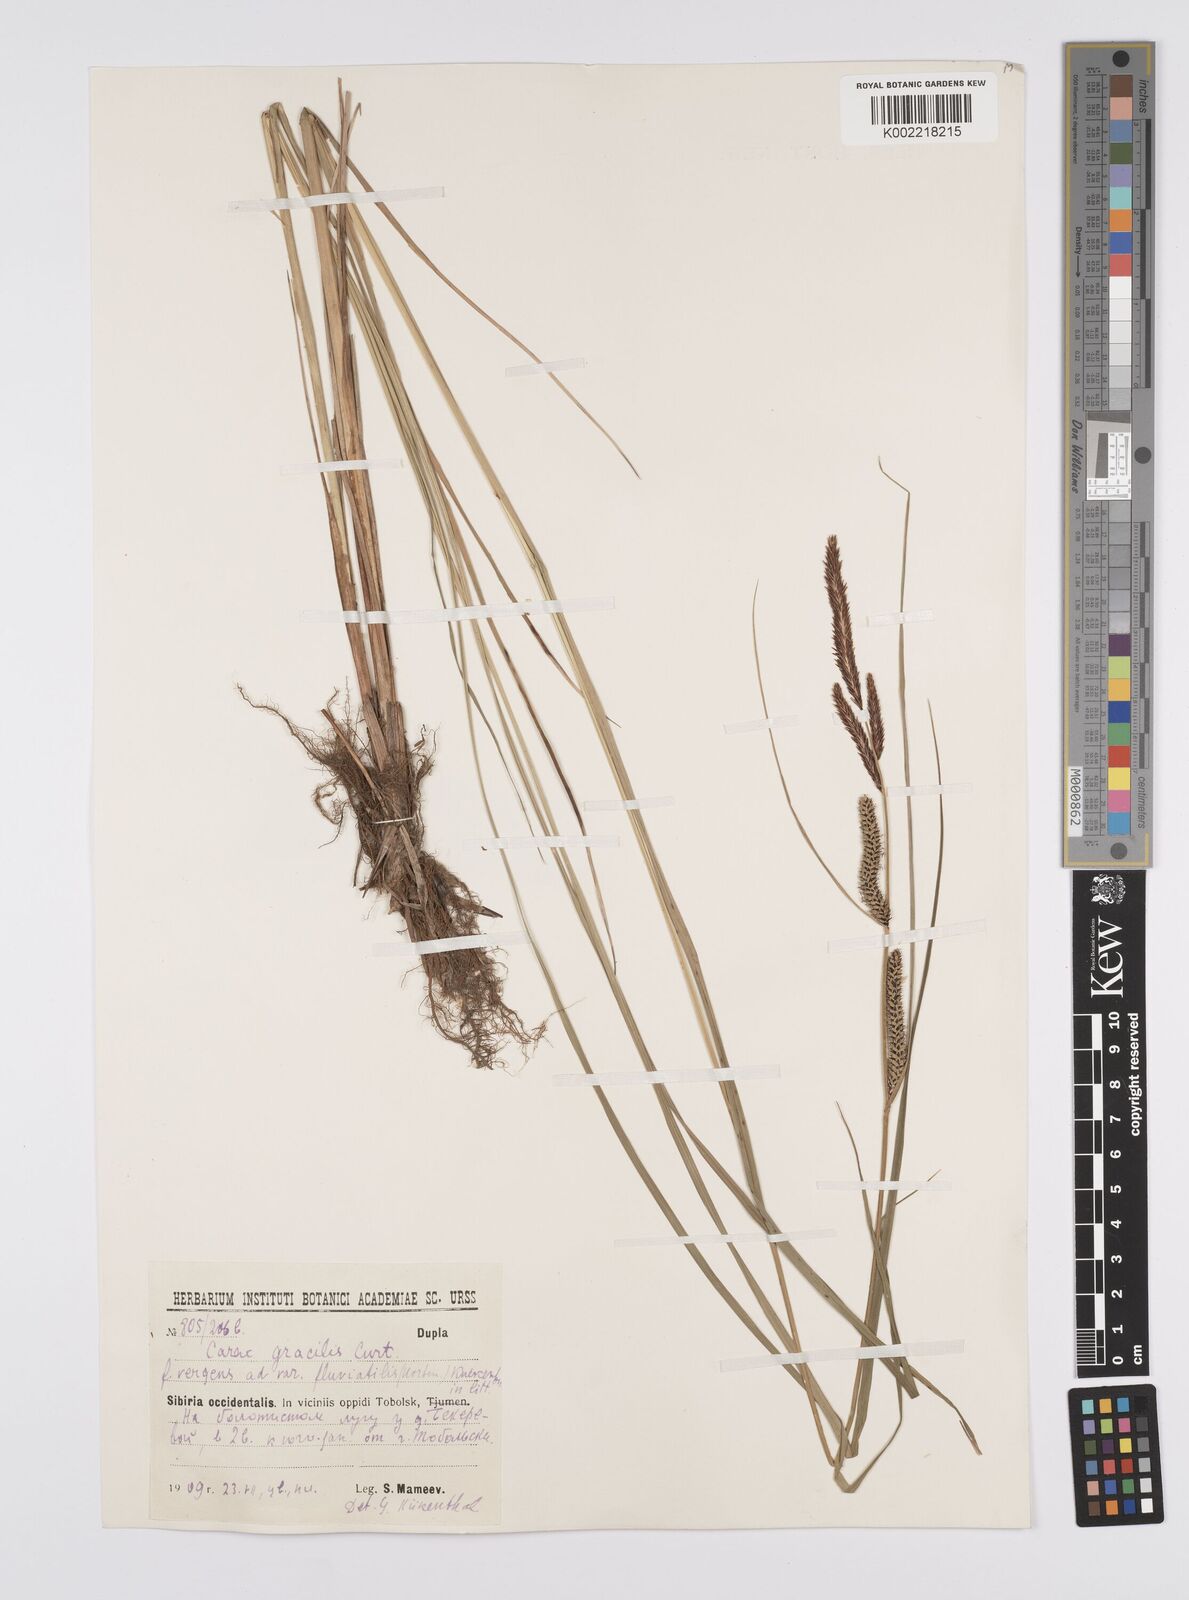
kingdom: Plantae
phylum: Tracheophyta
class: Liliopsida
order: Poales
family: Cyperaceae
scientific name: Cyperaceae
